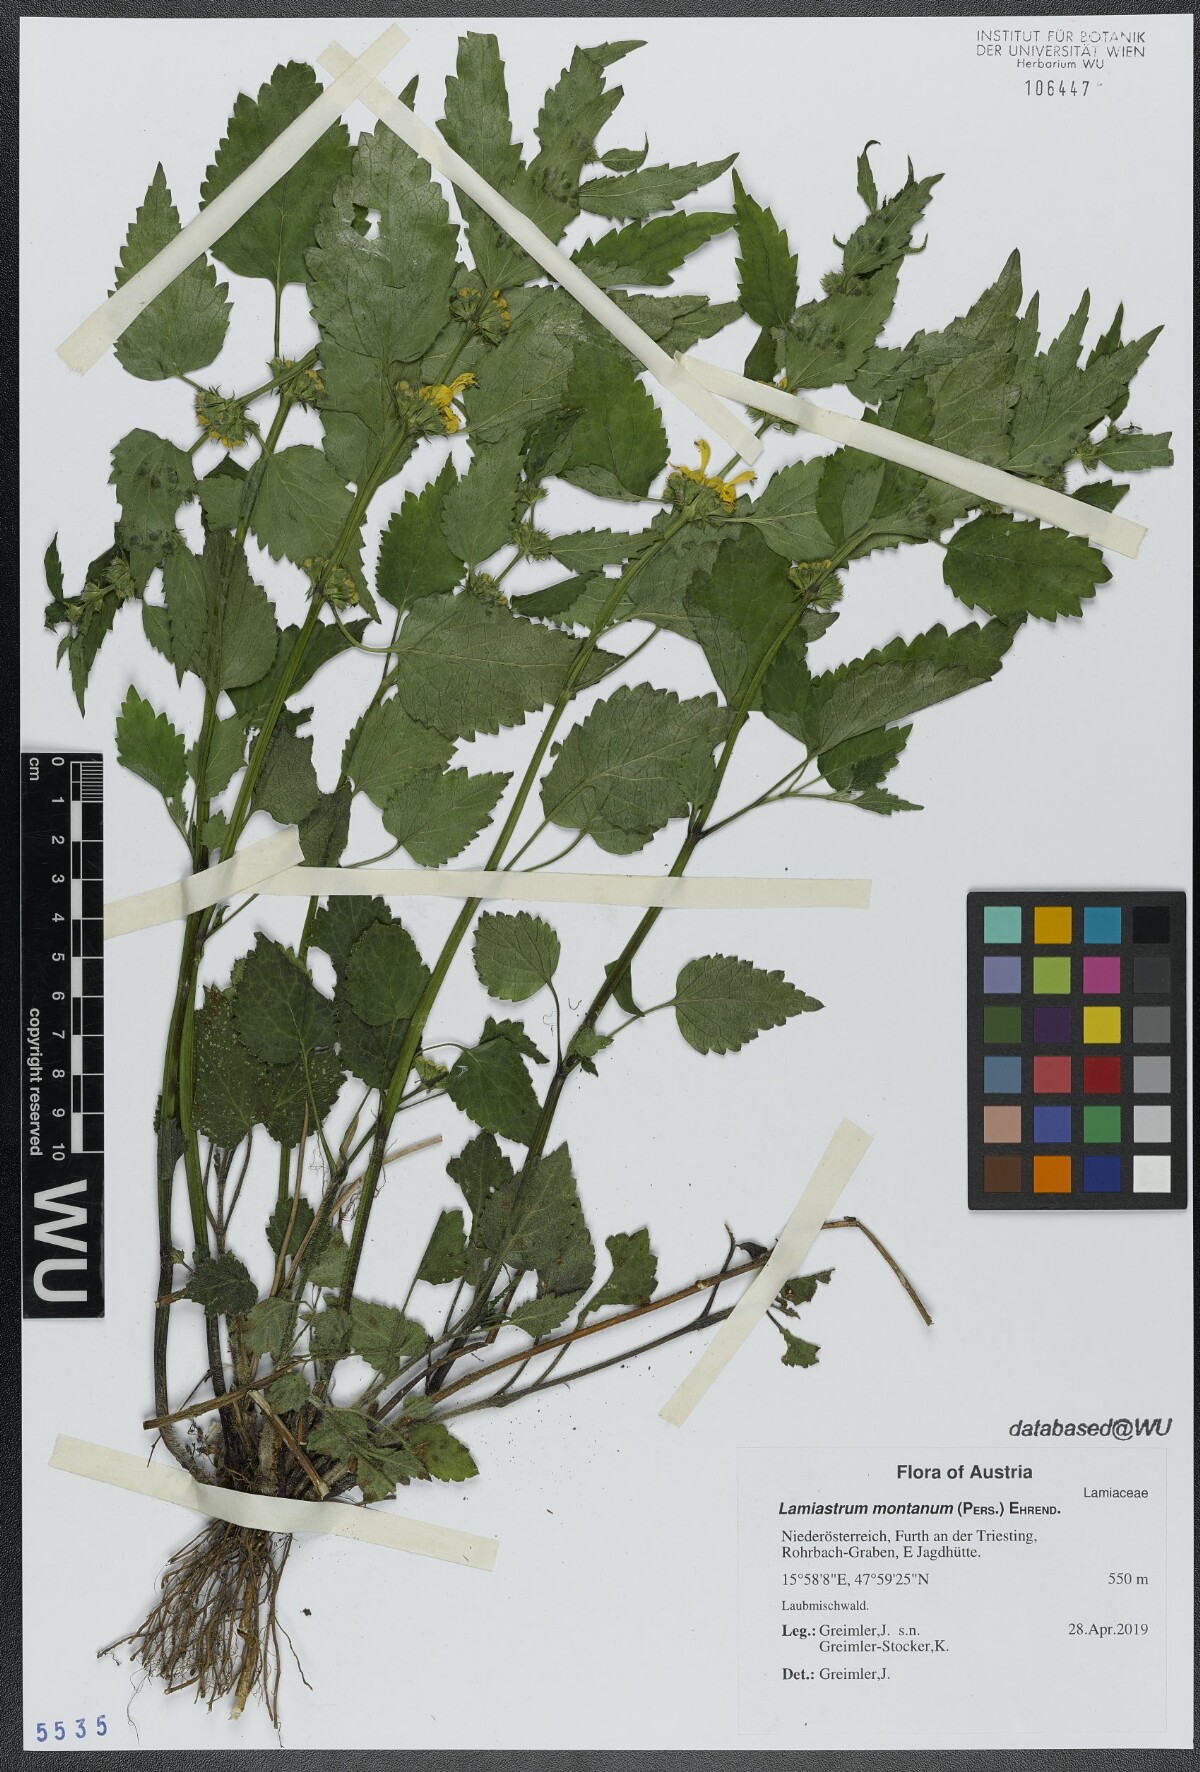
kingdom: Plantae
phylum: Tracheophyta
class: Magnoliopsida
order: Lamiales
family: Lamiaceae
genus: Lamium
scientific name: Lamium galeobdolon
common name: Yellow archangel
